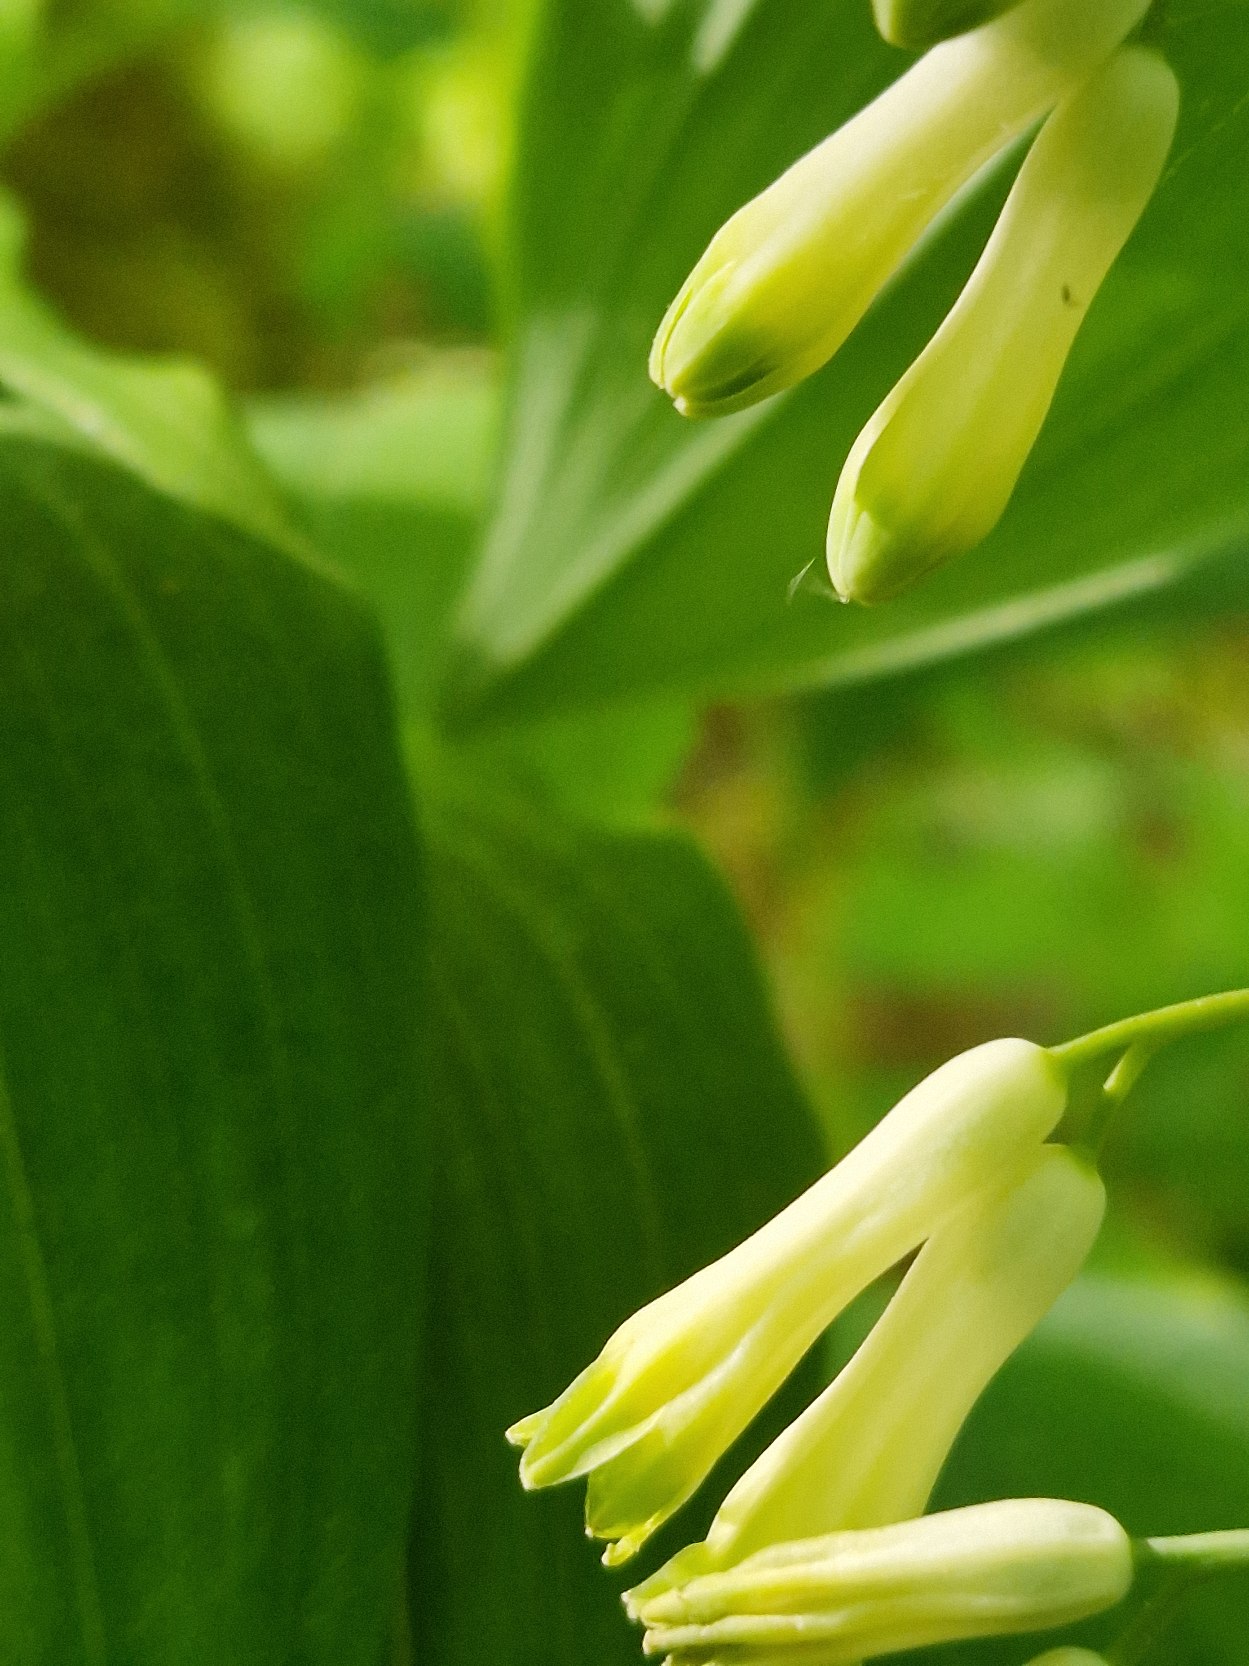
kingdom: Plantae
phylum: Tracheophyta
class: Liliopsida
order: Asparagales
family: Asparagaceae
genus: Polygonatum
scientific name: Polygonatum multiflorum
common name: Stor konval
